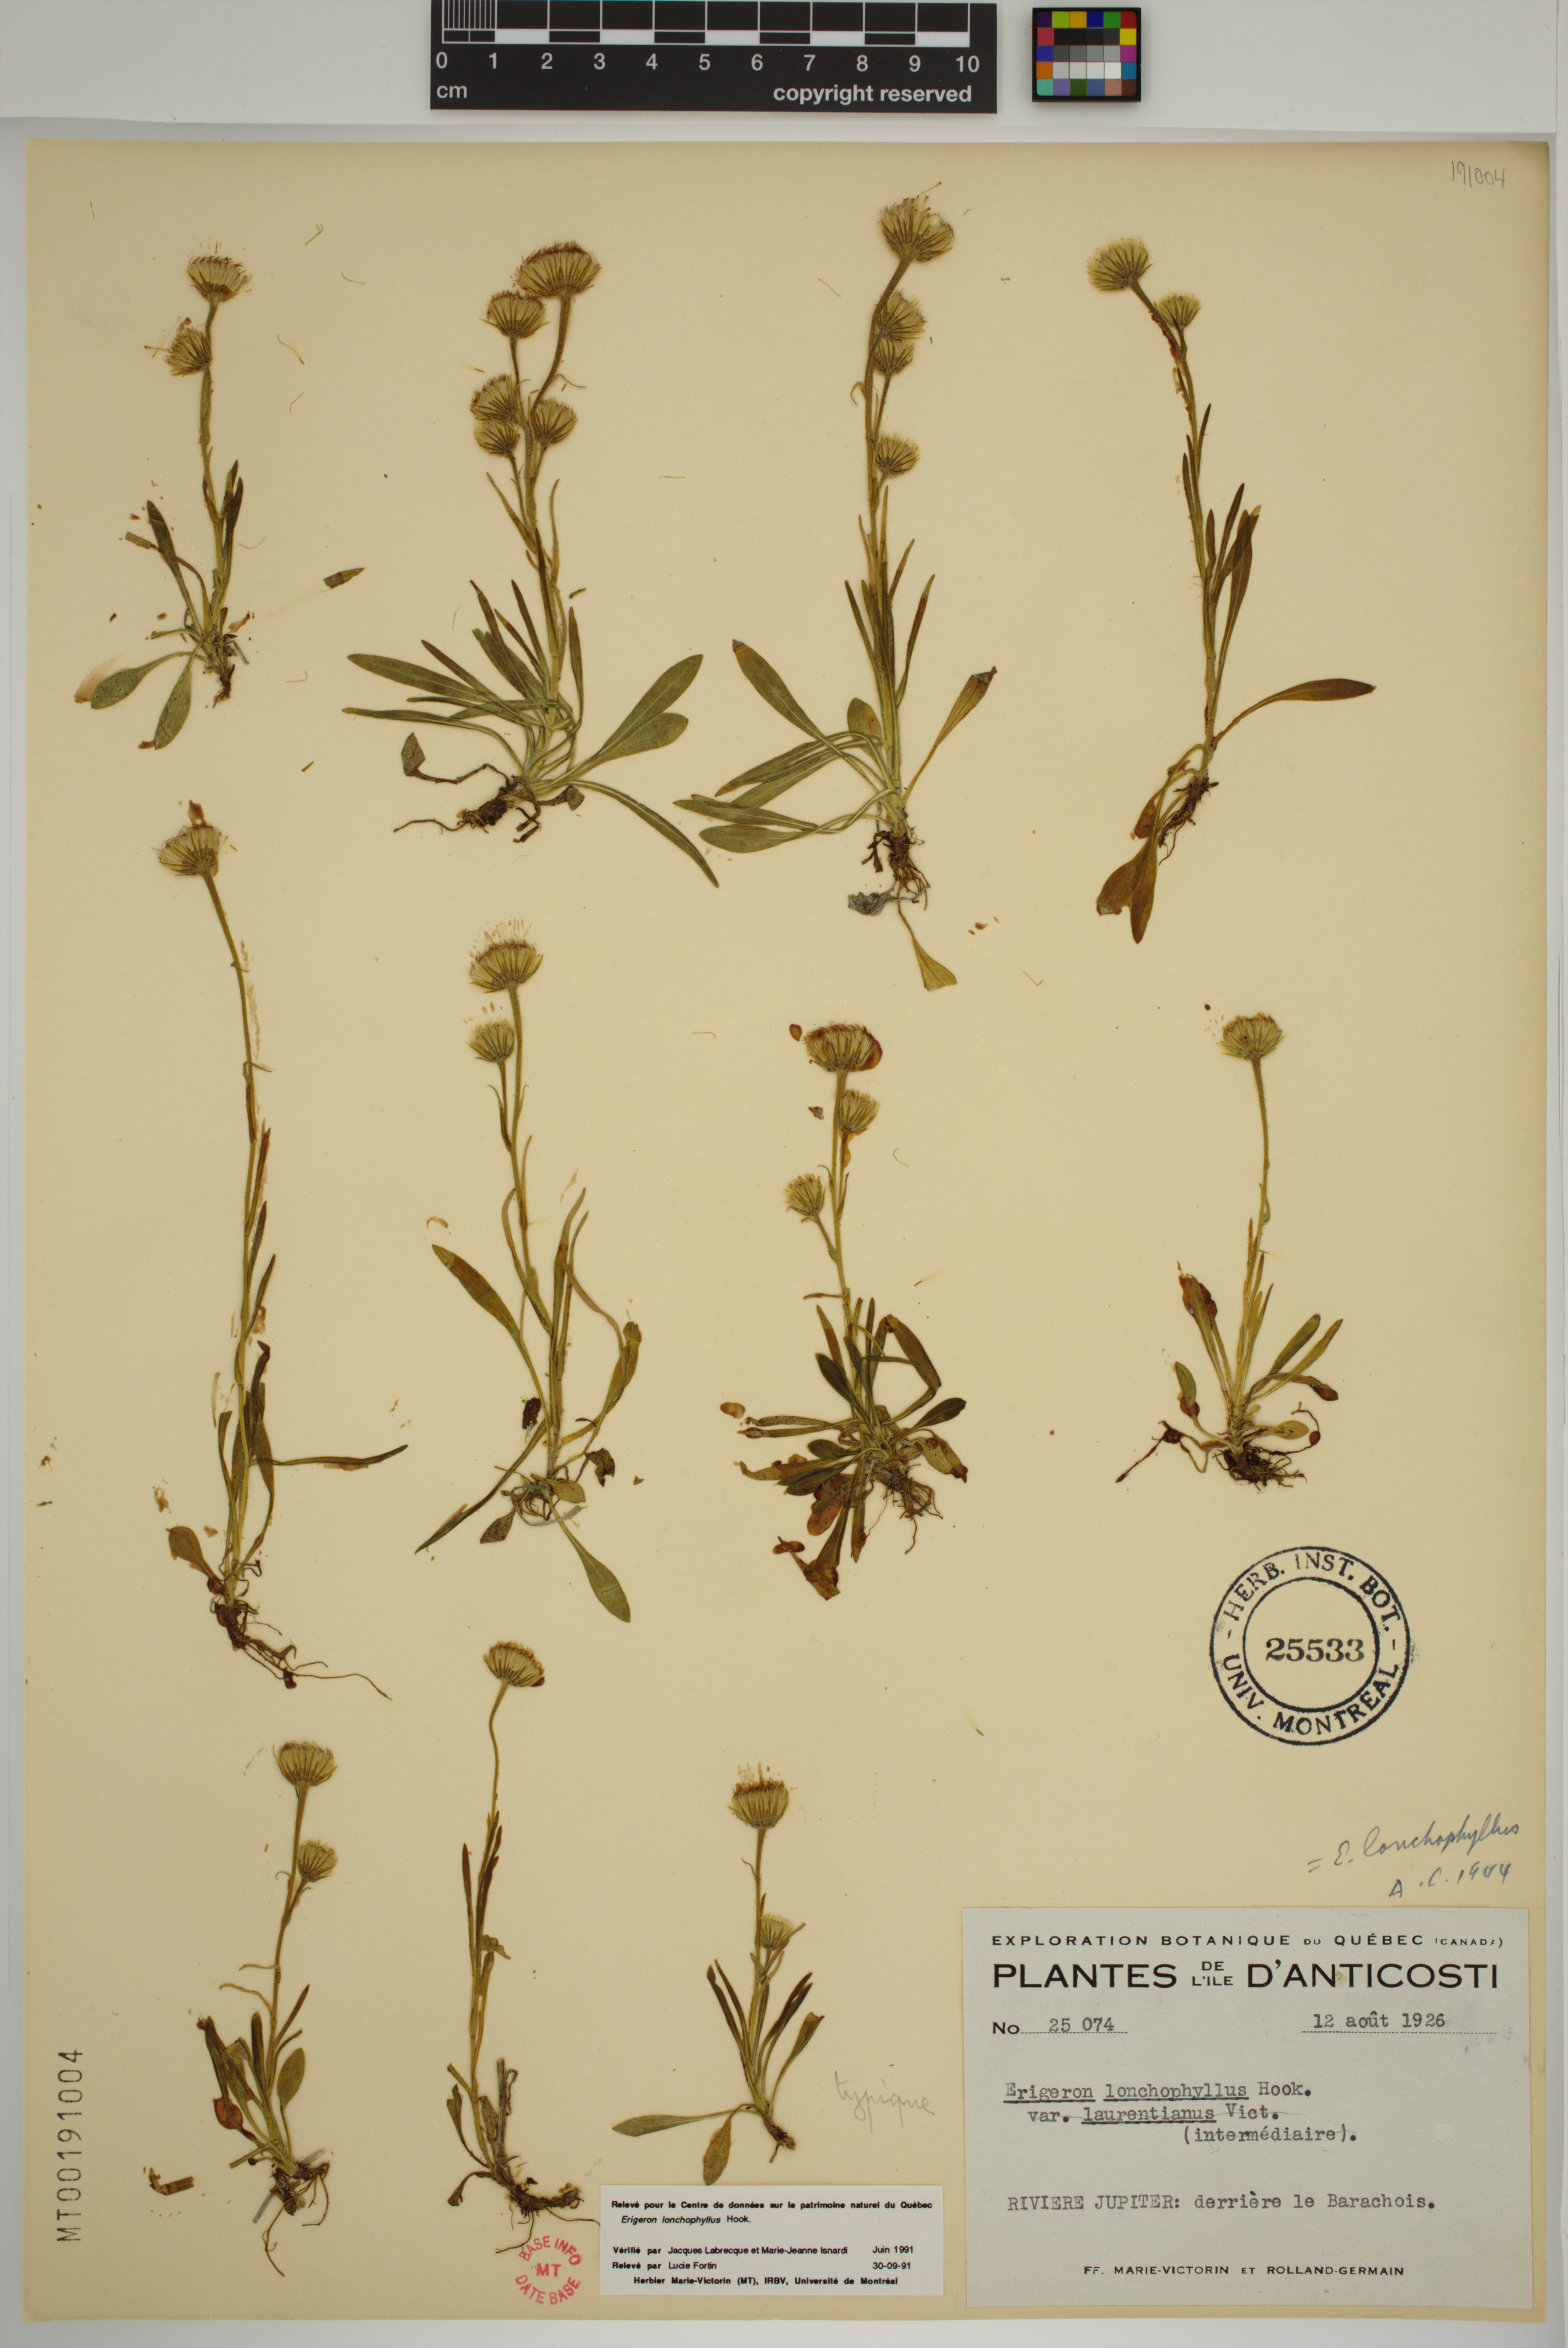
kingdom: Plantae
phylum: Tracheophyta
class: Magnoliopsida
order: Asterales
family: Asteraceae
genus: Erigeron
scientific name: Erigeron lonchophyllus
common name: Short-ray fleabane
